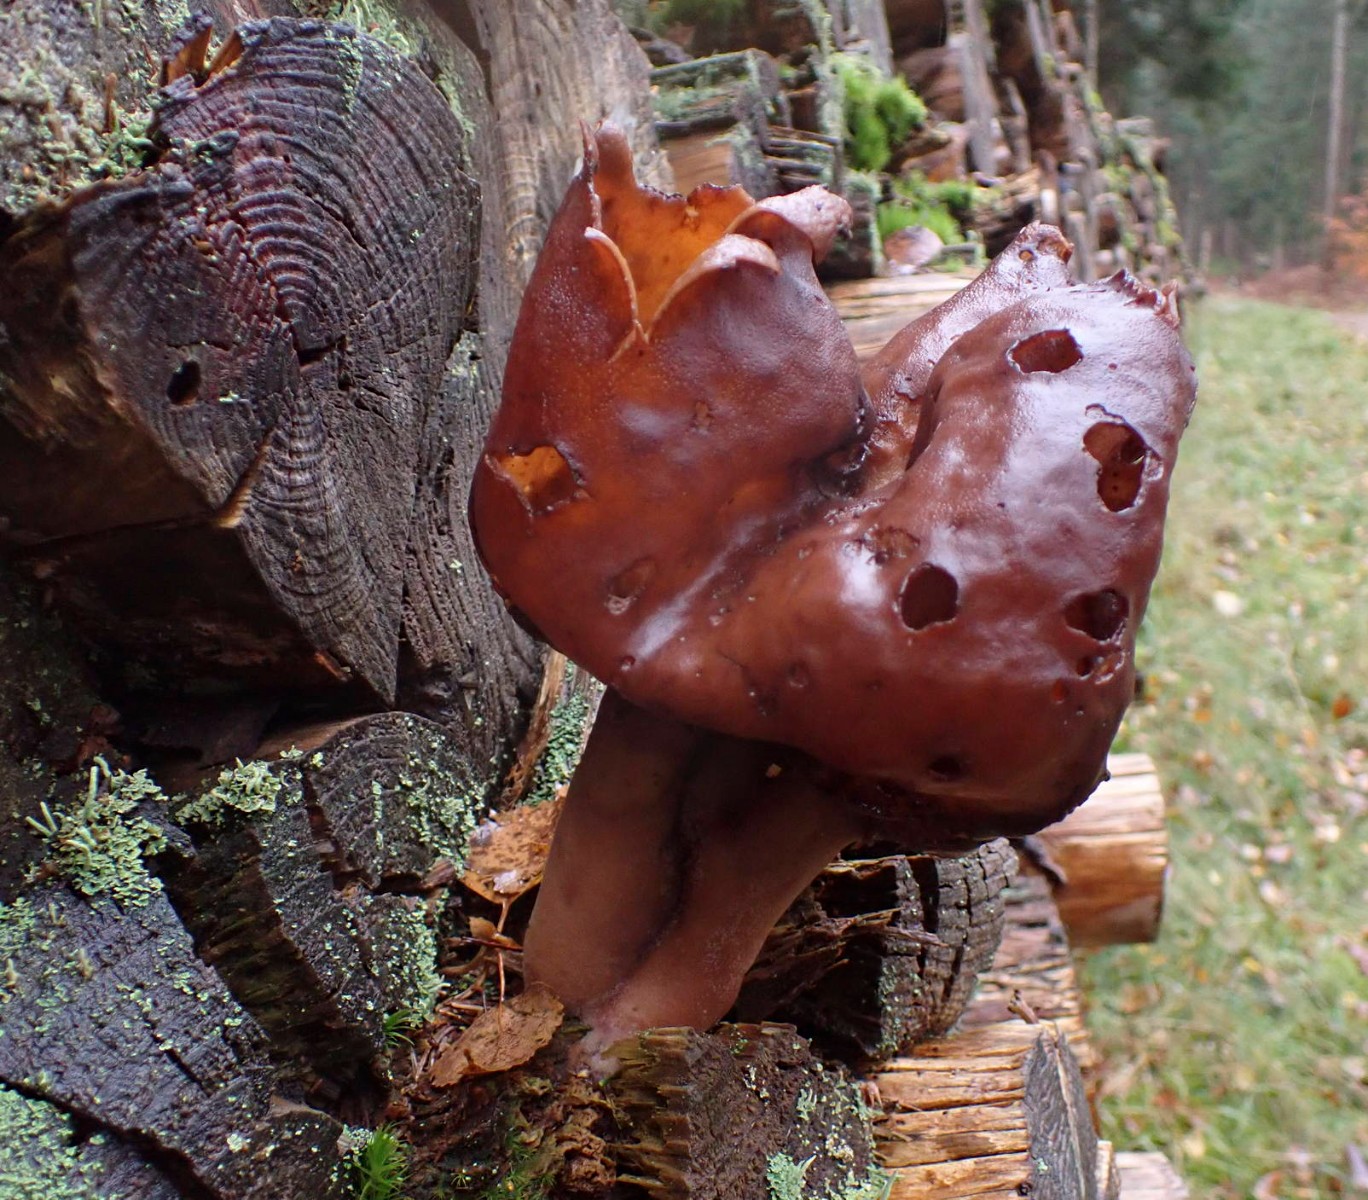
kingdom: Fungi
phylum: Ascomycota
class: Pezizomycetes
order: Pezizales
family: Discinaceae
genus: Gyromitra
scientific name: Gyromitra infula
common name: bispehue-stenmorkel
